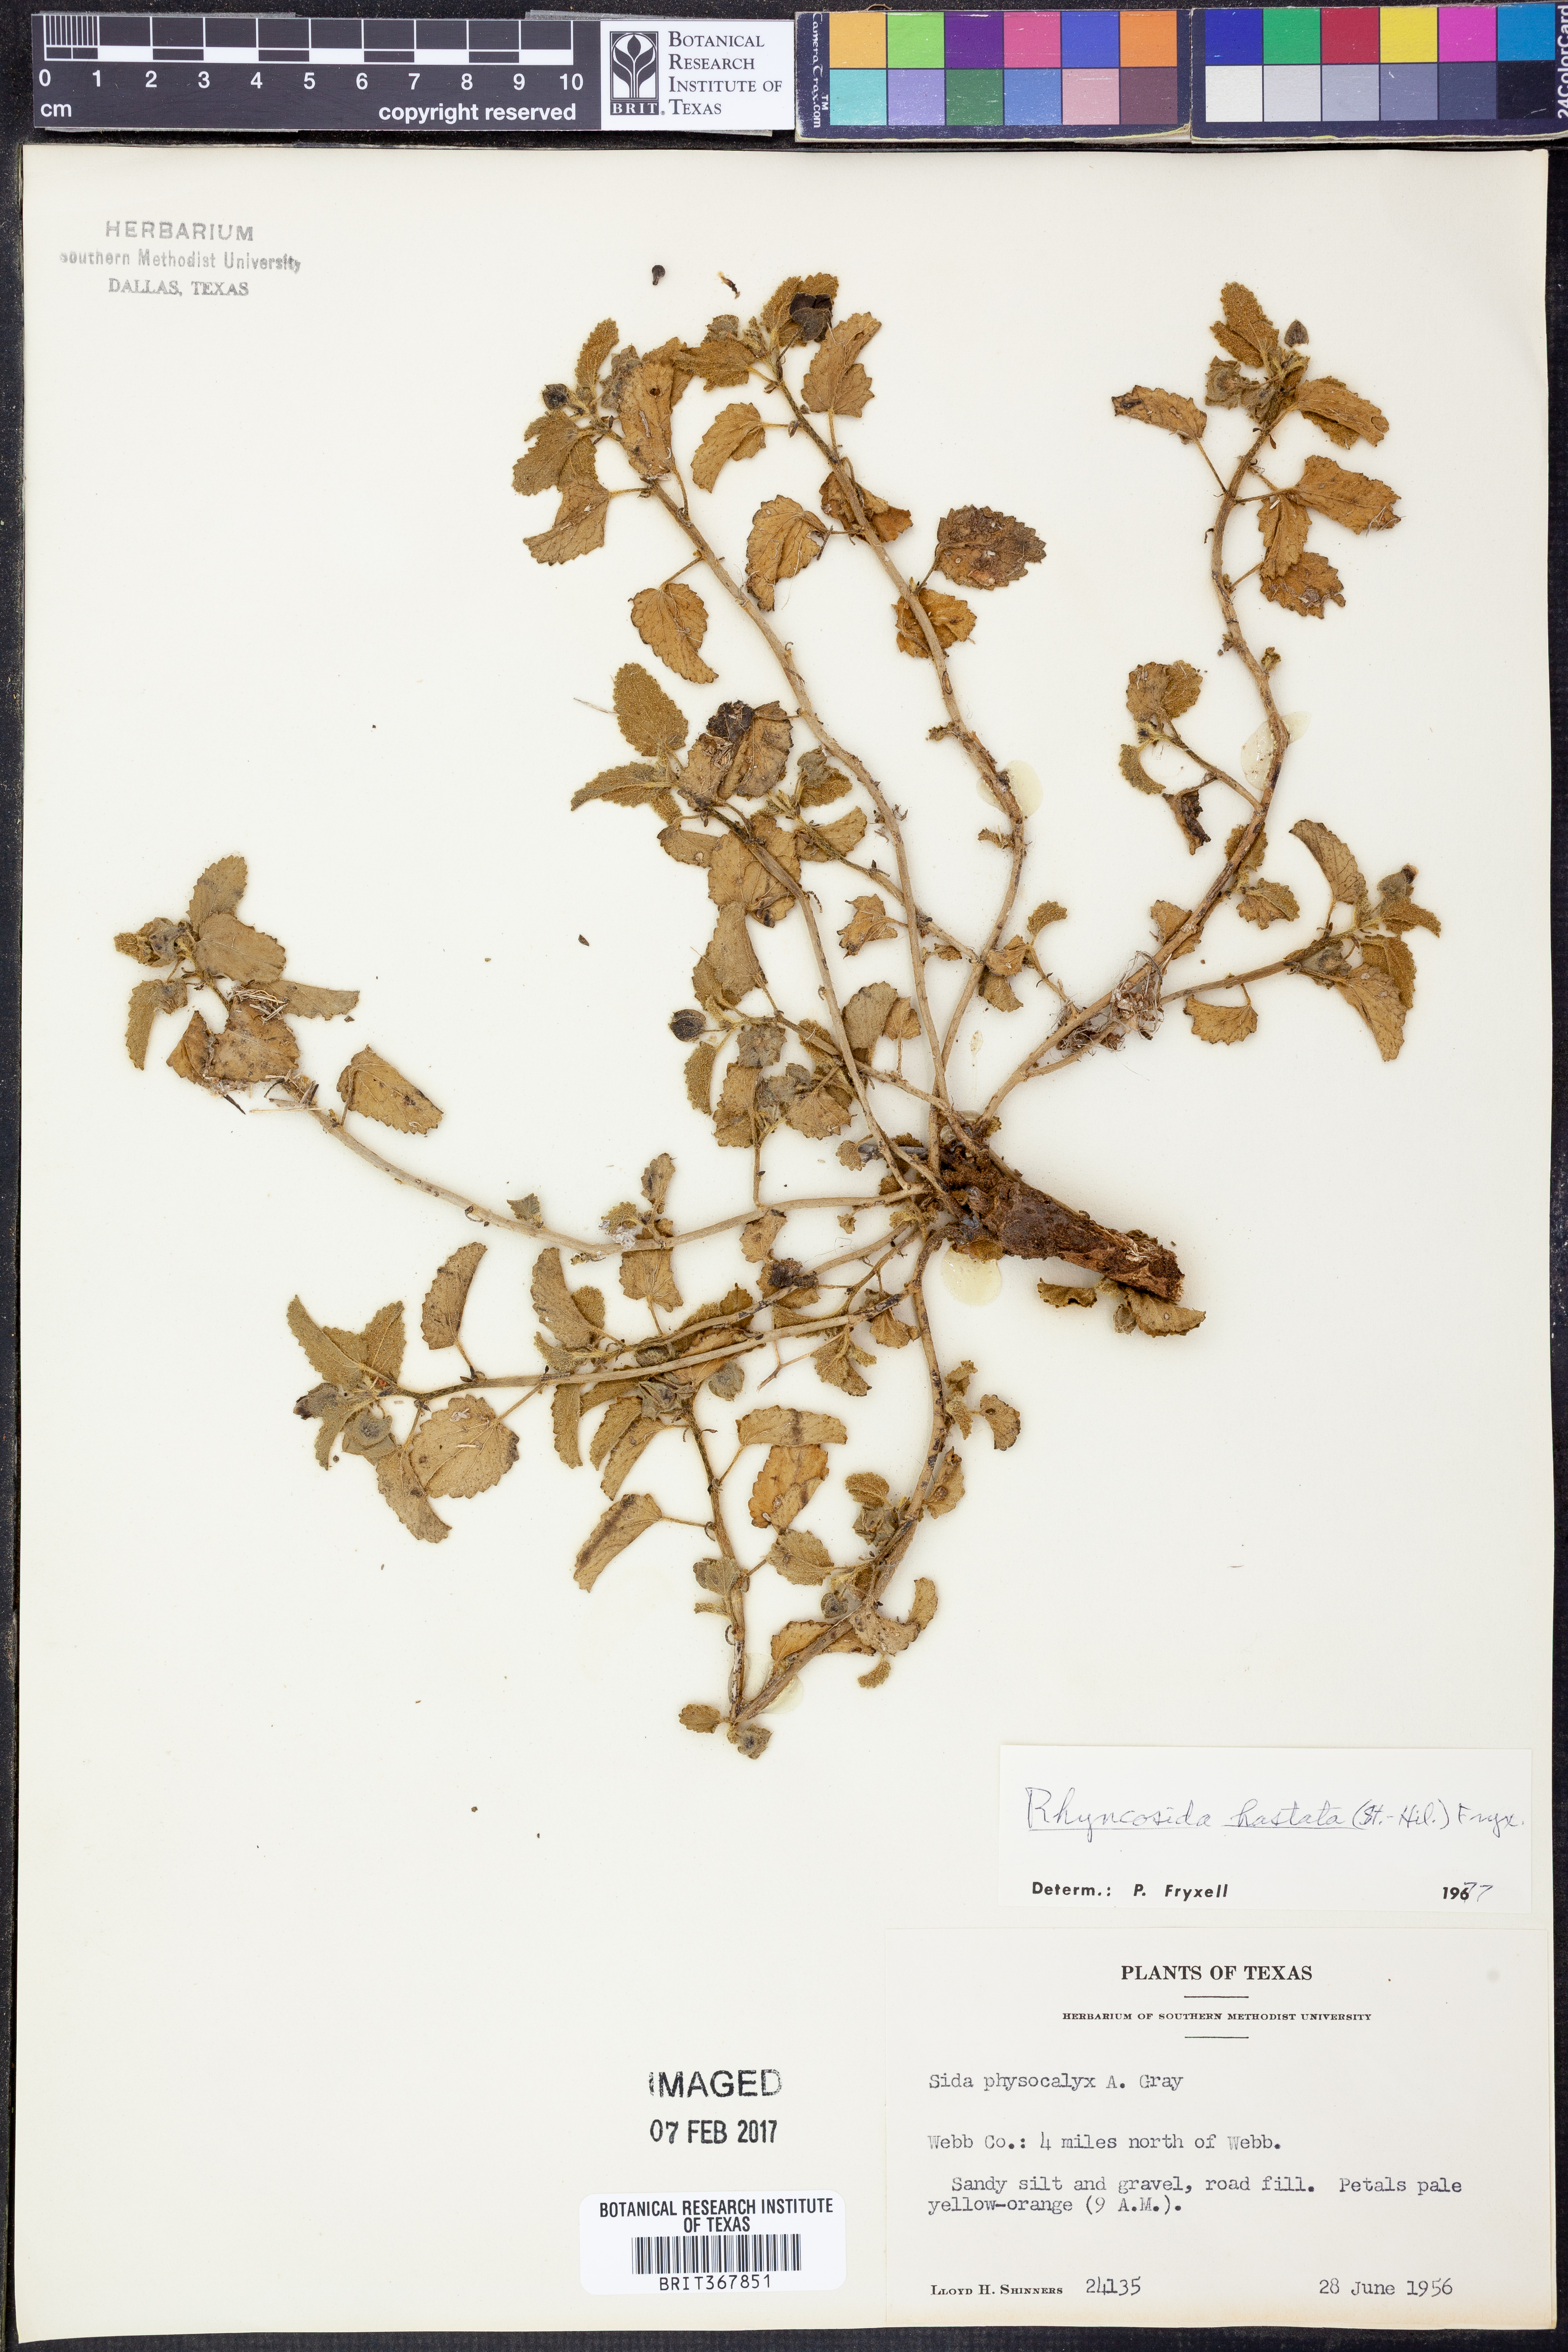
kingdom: Plantae
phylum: Tracheophyta
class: Magnoliopsida
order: Malvales
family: Malvaceae
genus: Rhynchosida
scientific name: Rhynchosida
